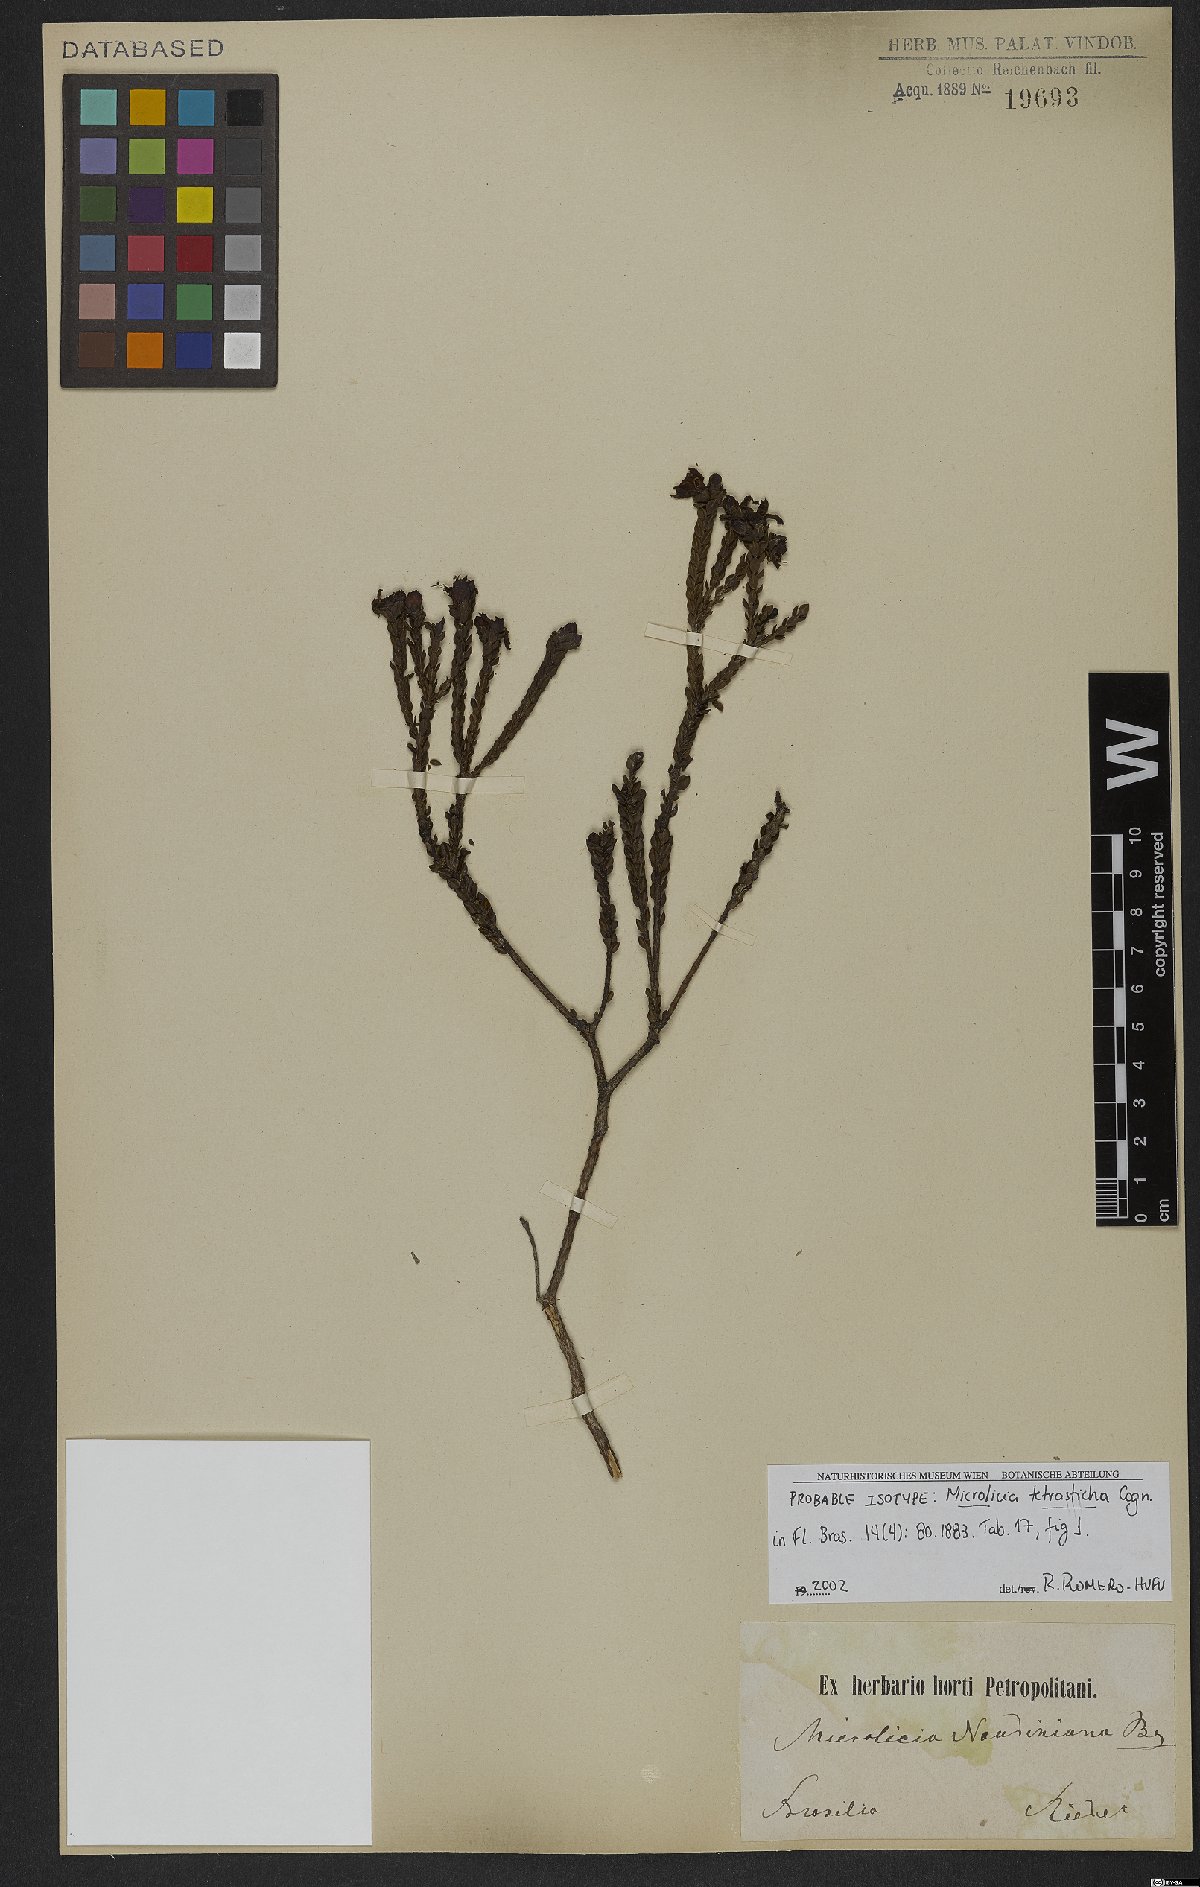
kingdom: Plantae
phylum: Tracheophyta
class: Magnoliopsida
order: Myrtales
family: Melastomataceae
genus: Microlicia
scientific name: Microlicia tetrasticha
